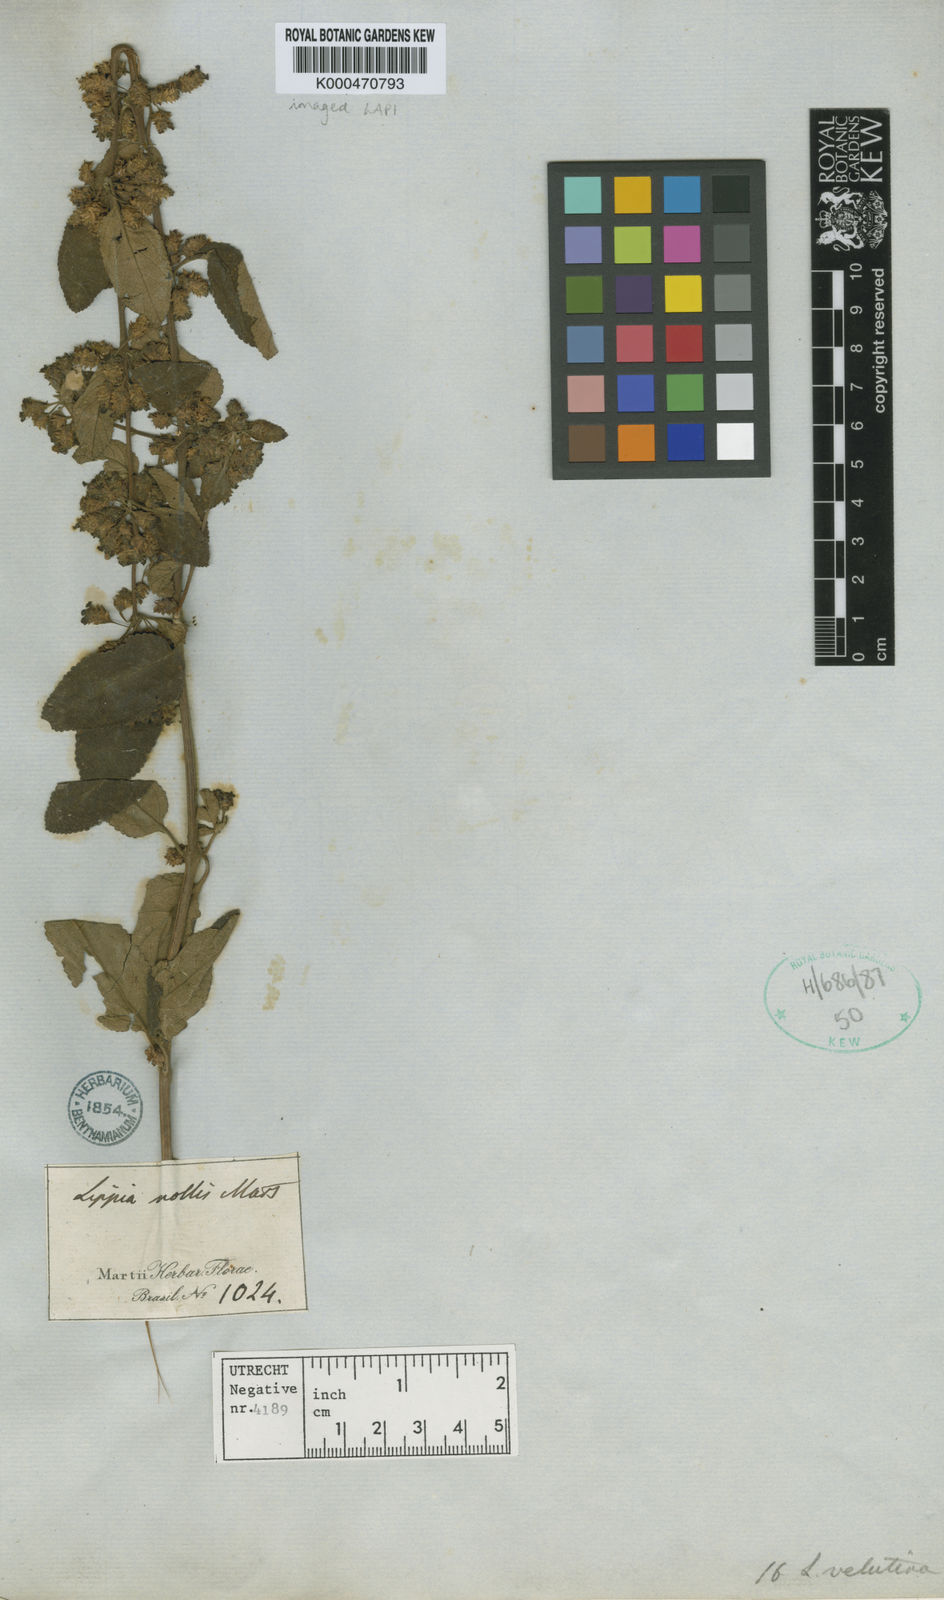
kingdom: Plantae
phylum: Tracheophyta
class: Magnoliopsida
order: Lamiales
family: Verbenaceae
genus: Lippia
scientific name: Lippia origanoides
